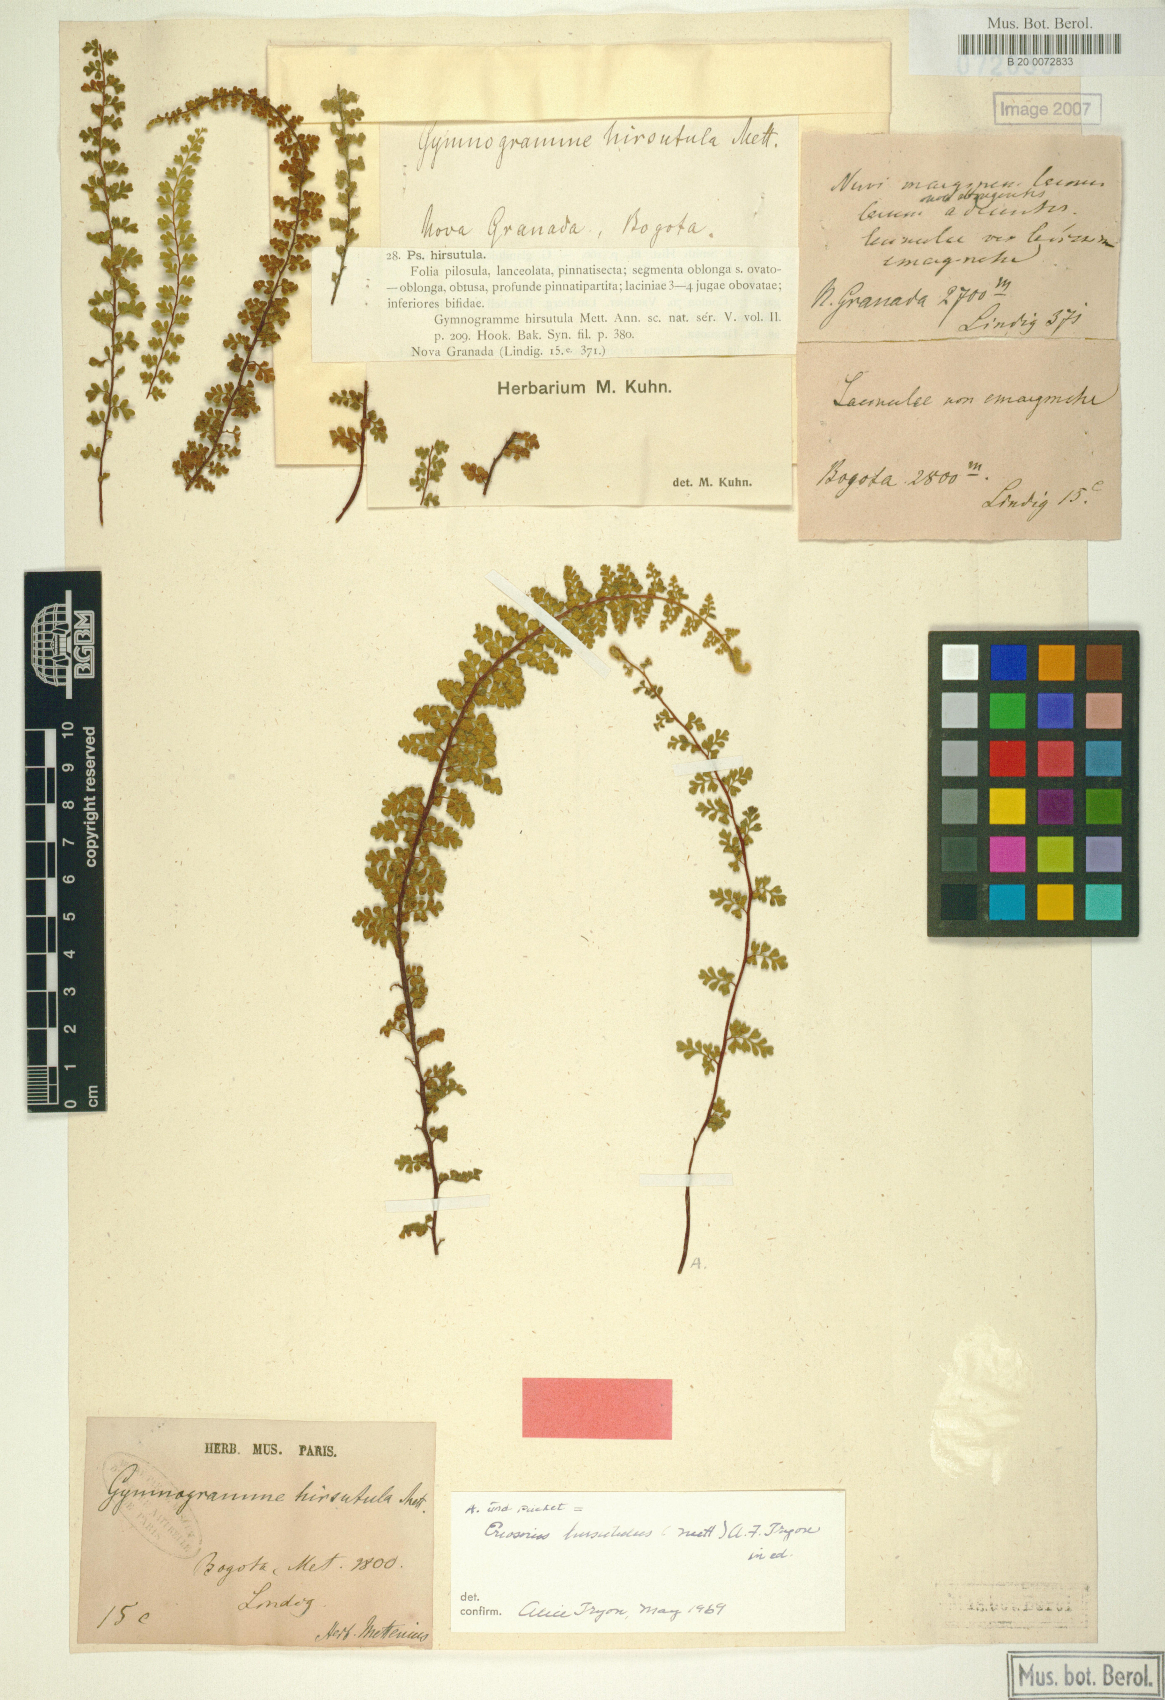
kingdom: Plantae
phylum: Tracheophyta
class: Polypodiopsida
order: Polypodiales
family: Pteridaceae
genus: Jamesonia
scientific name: Jamesonia hirsutula
